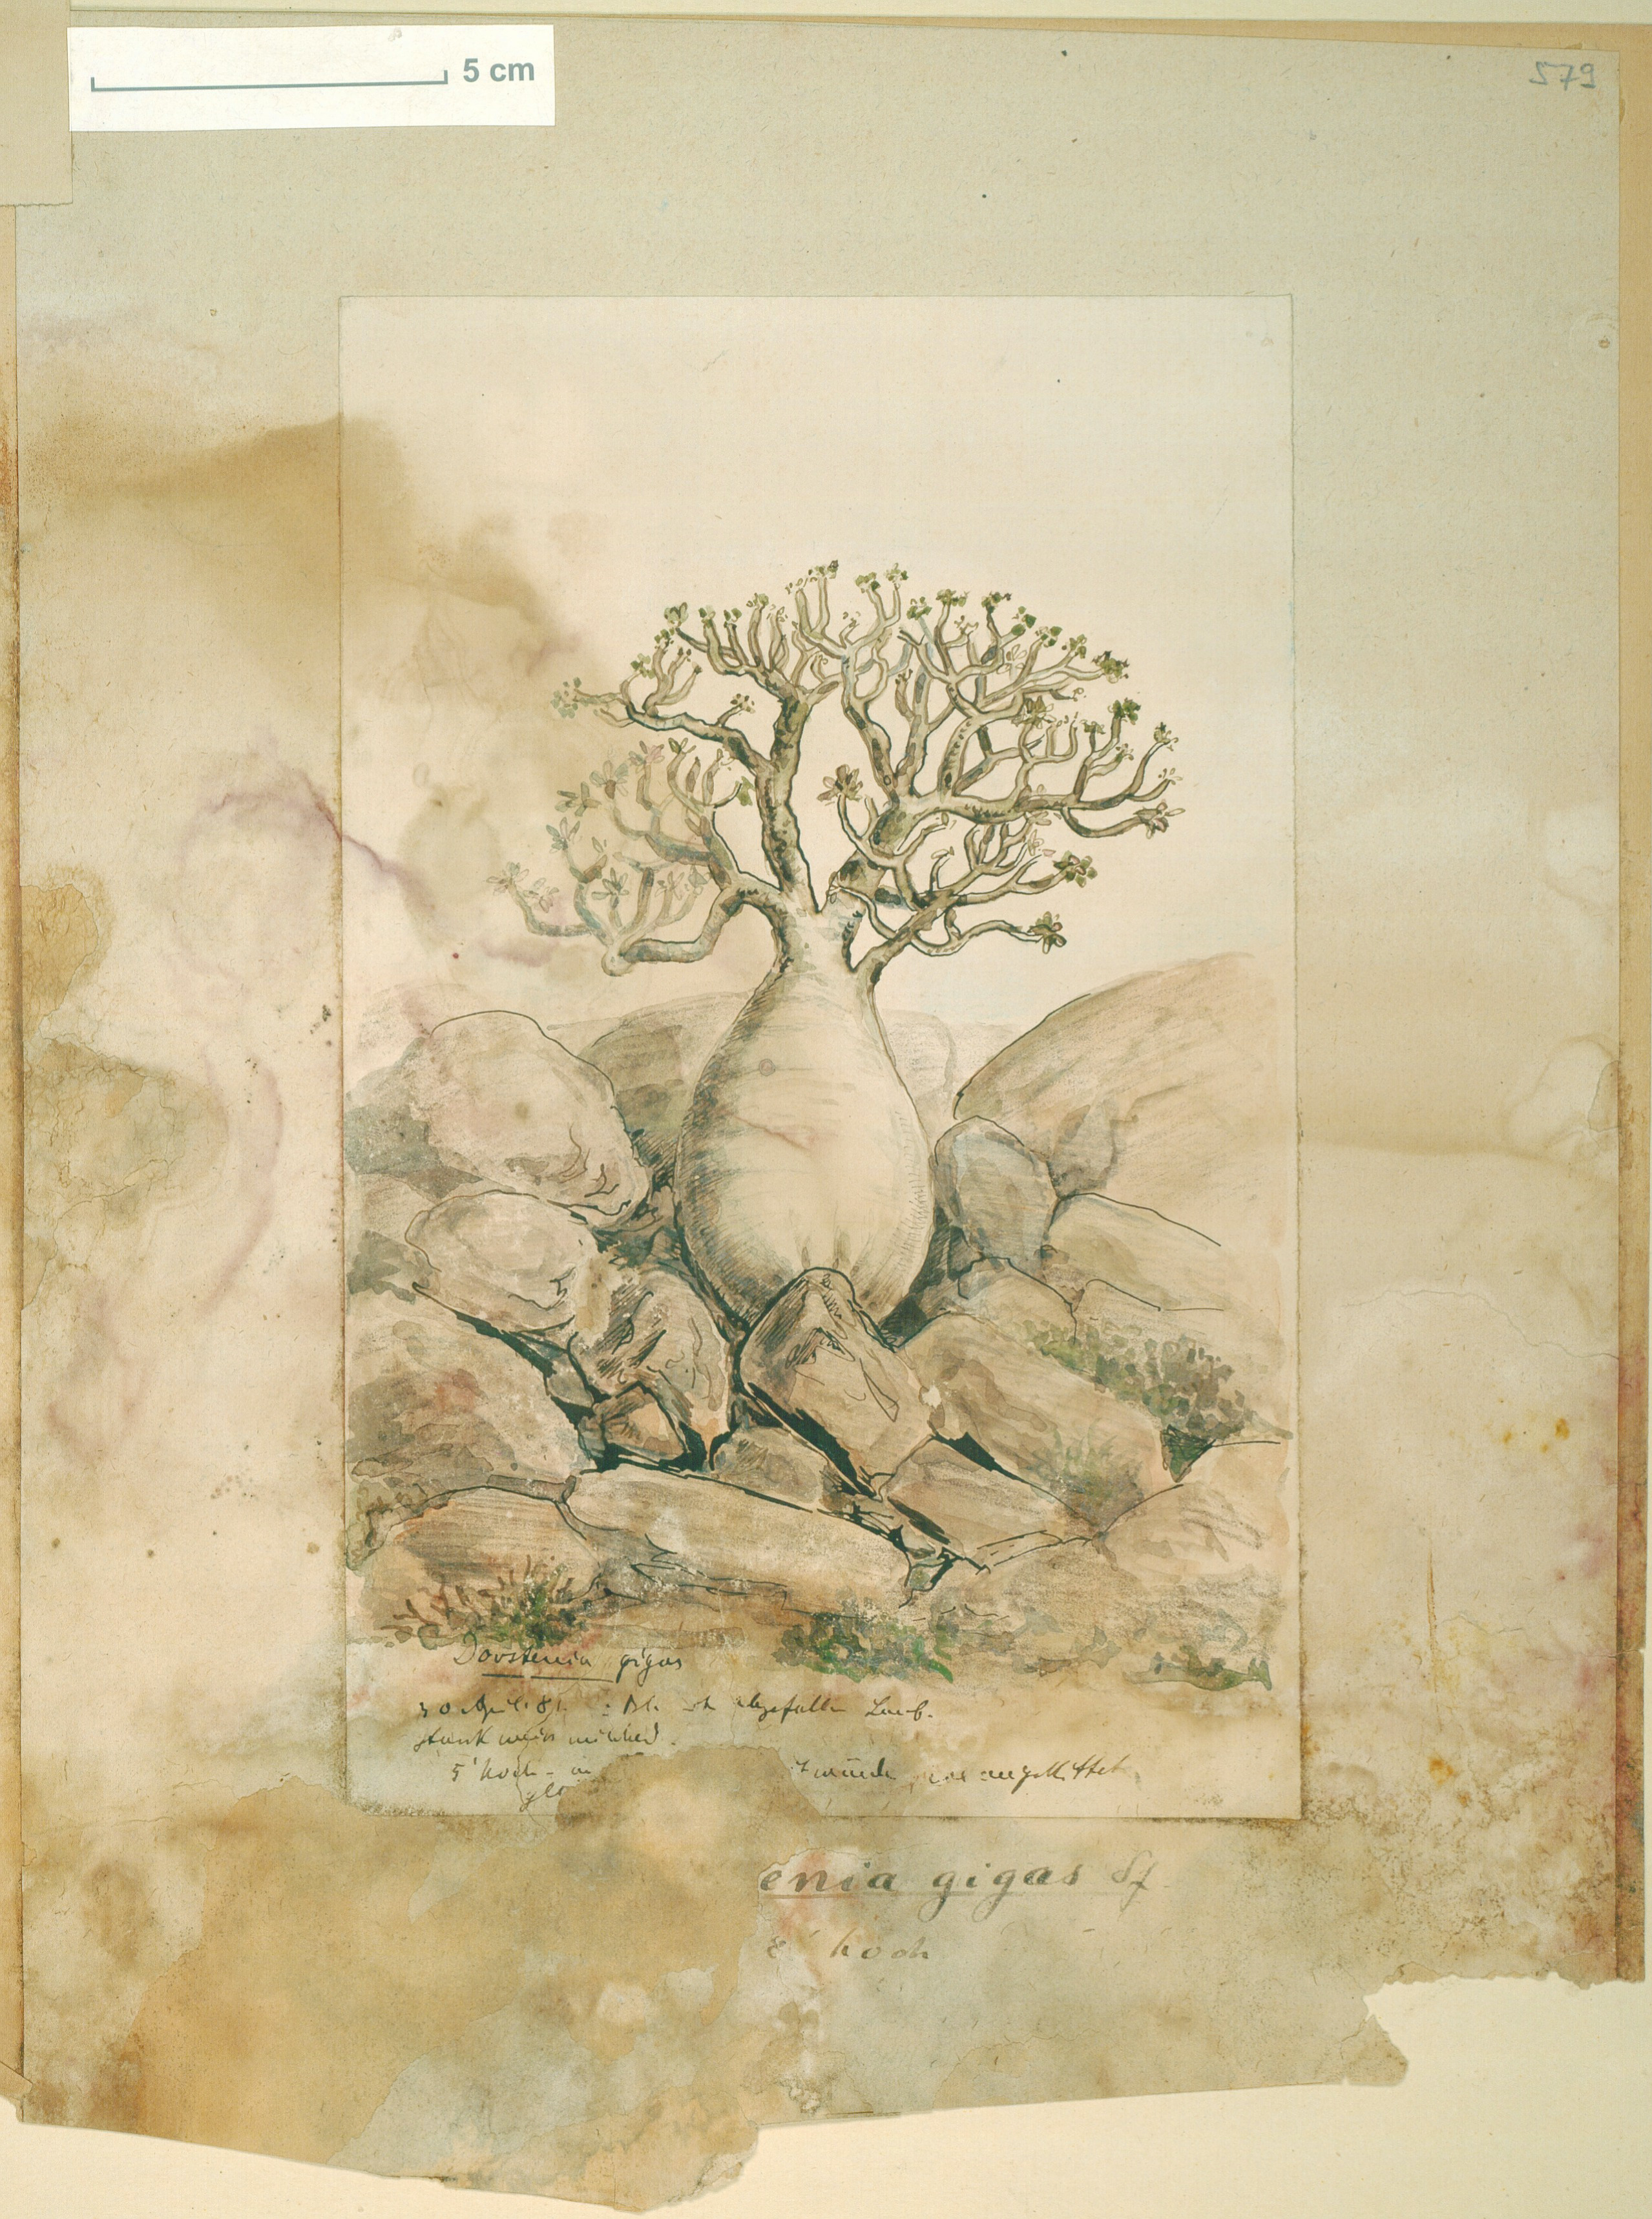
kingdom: Plantae
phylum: Tracheophyta
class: Magnoliopsida
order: Rosales
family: Moraceae
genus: Dorstenia
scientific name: Dorstenia gigas
